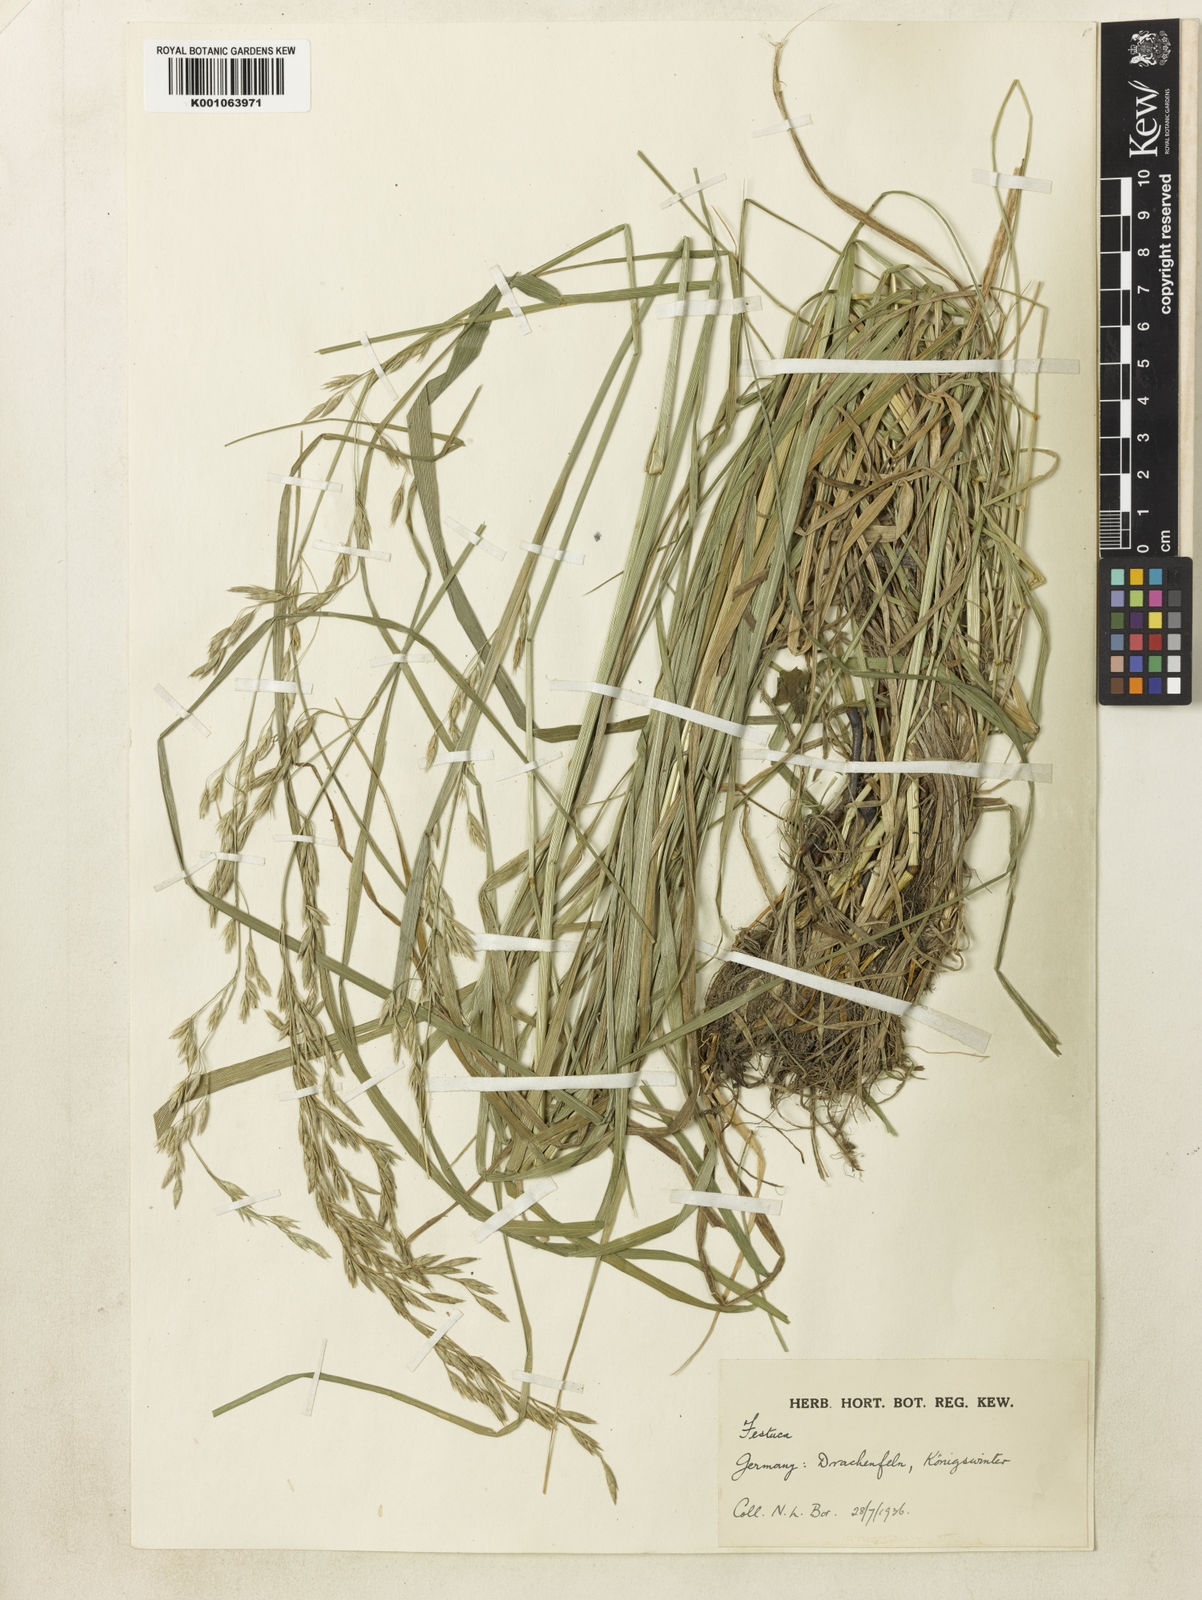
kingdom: Plantae
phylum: Tracheophyta
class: Liliopsida
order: Poales
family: Poaceae
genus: Lolium
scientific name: Lolium arundinaceum
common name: Reed fescue
